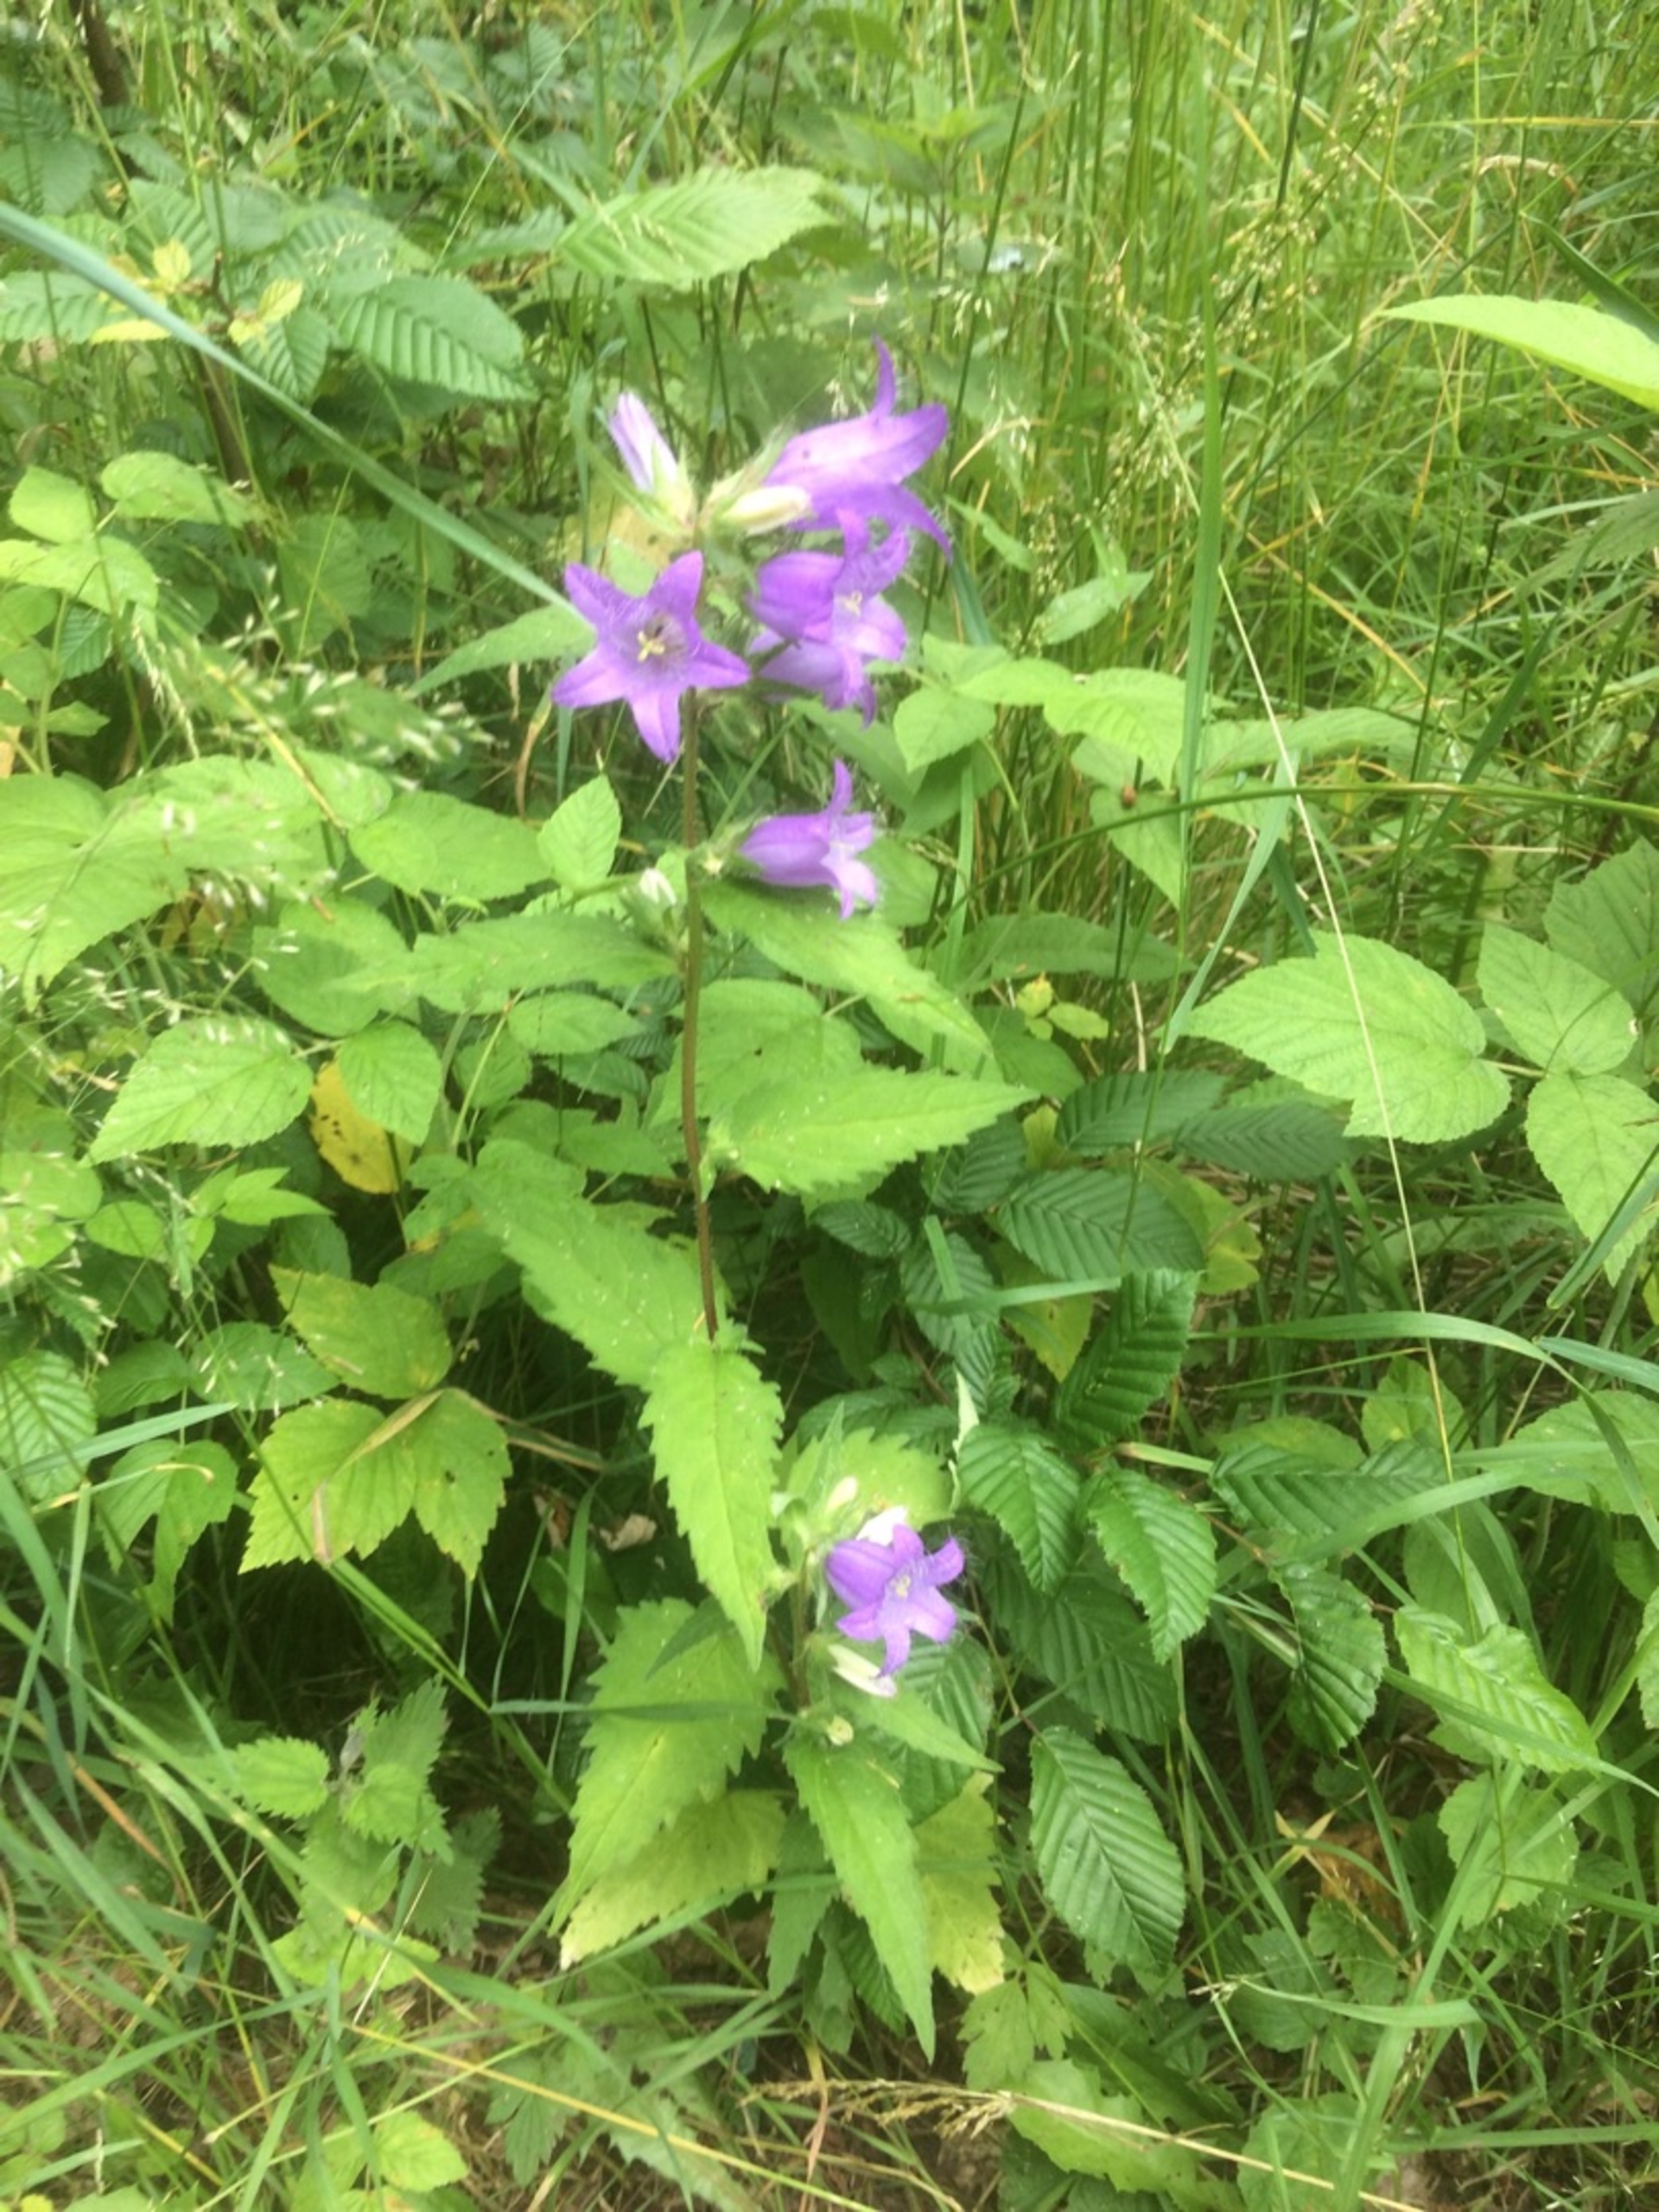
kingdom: Plantae
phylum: Tracheophyta
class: Magnoliopsida
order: Asterales
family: Campanulaceae
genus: Campanula
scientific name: Campanula trachelium
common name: Nælde-klokke
